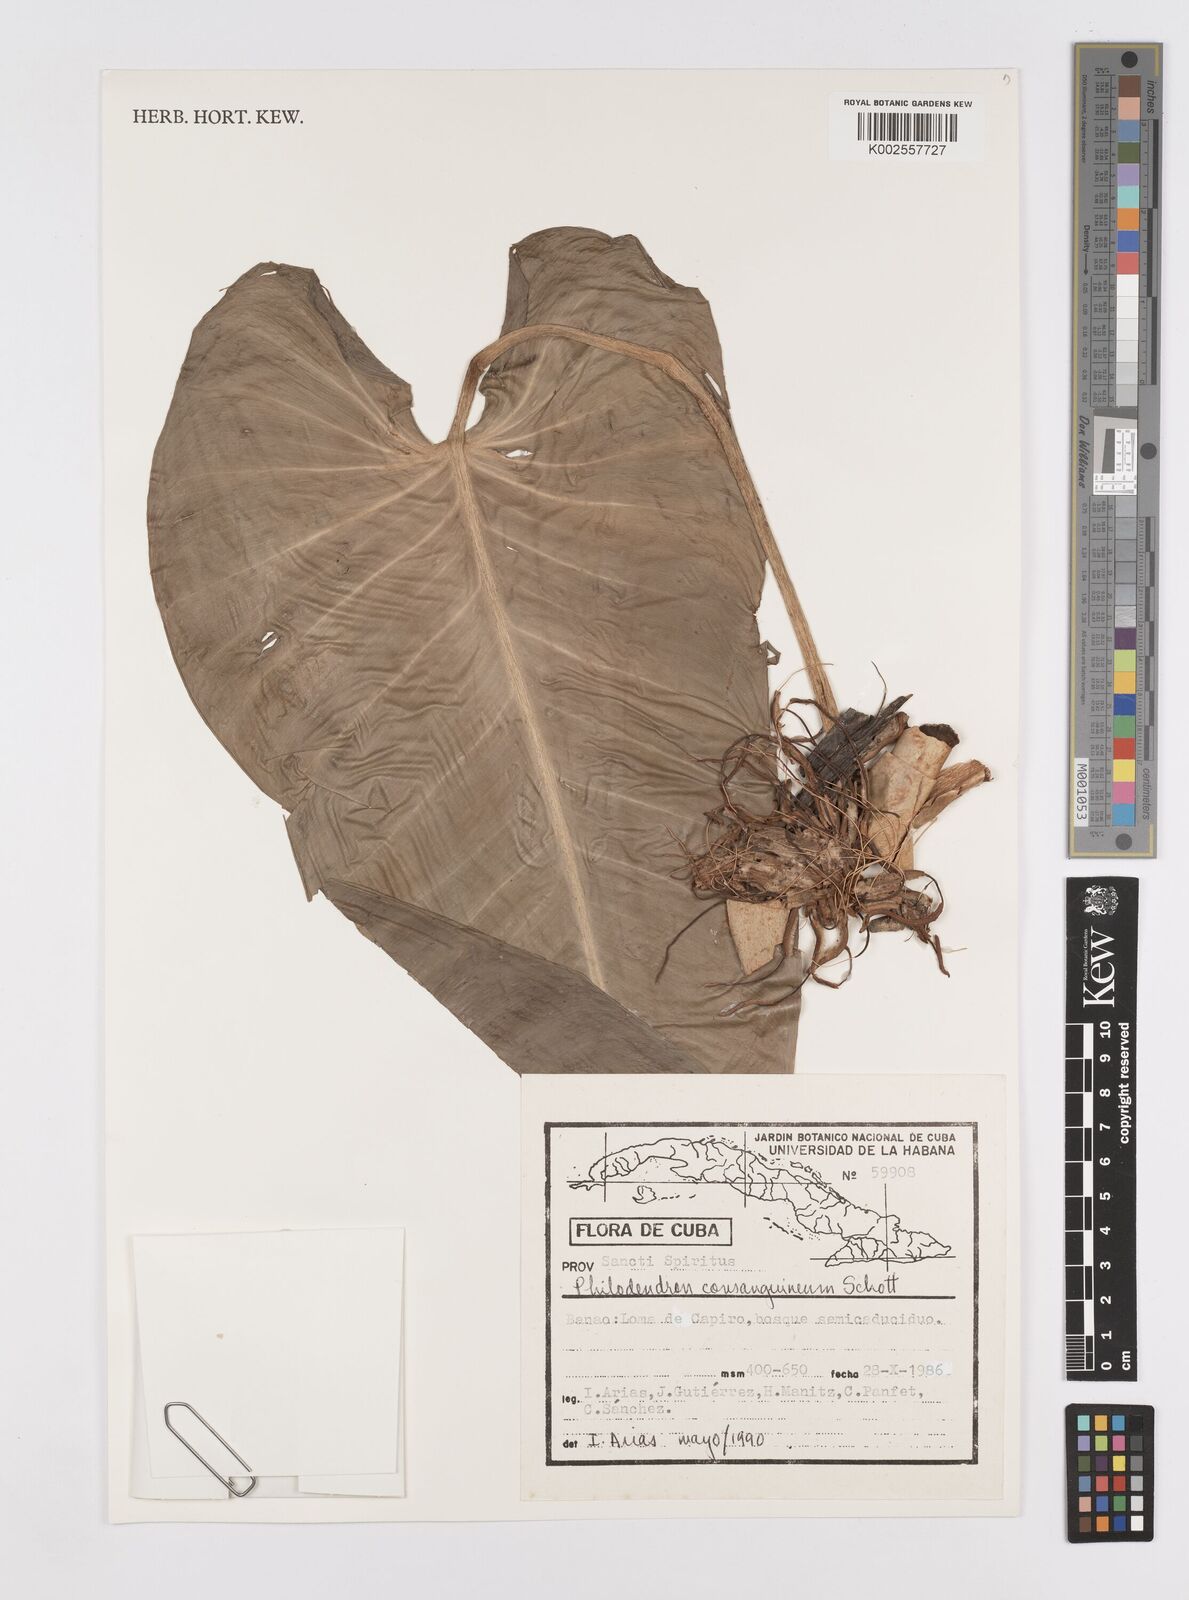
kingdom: Plantae
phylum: Tracheophyta
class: Liliopsida
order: Alismatales
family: Araceae
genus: Philodendron
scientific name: Philodendron consanguineum
